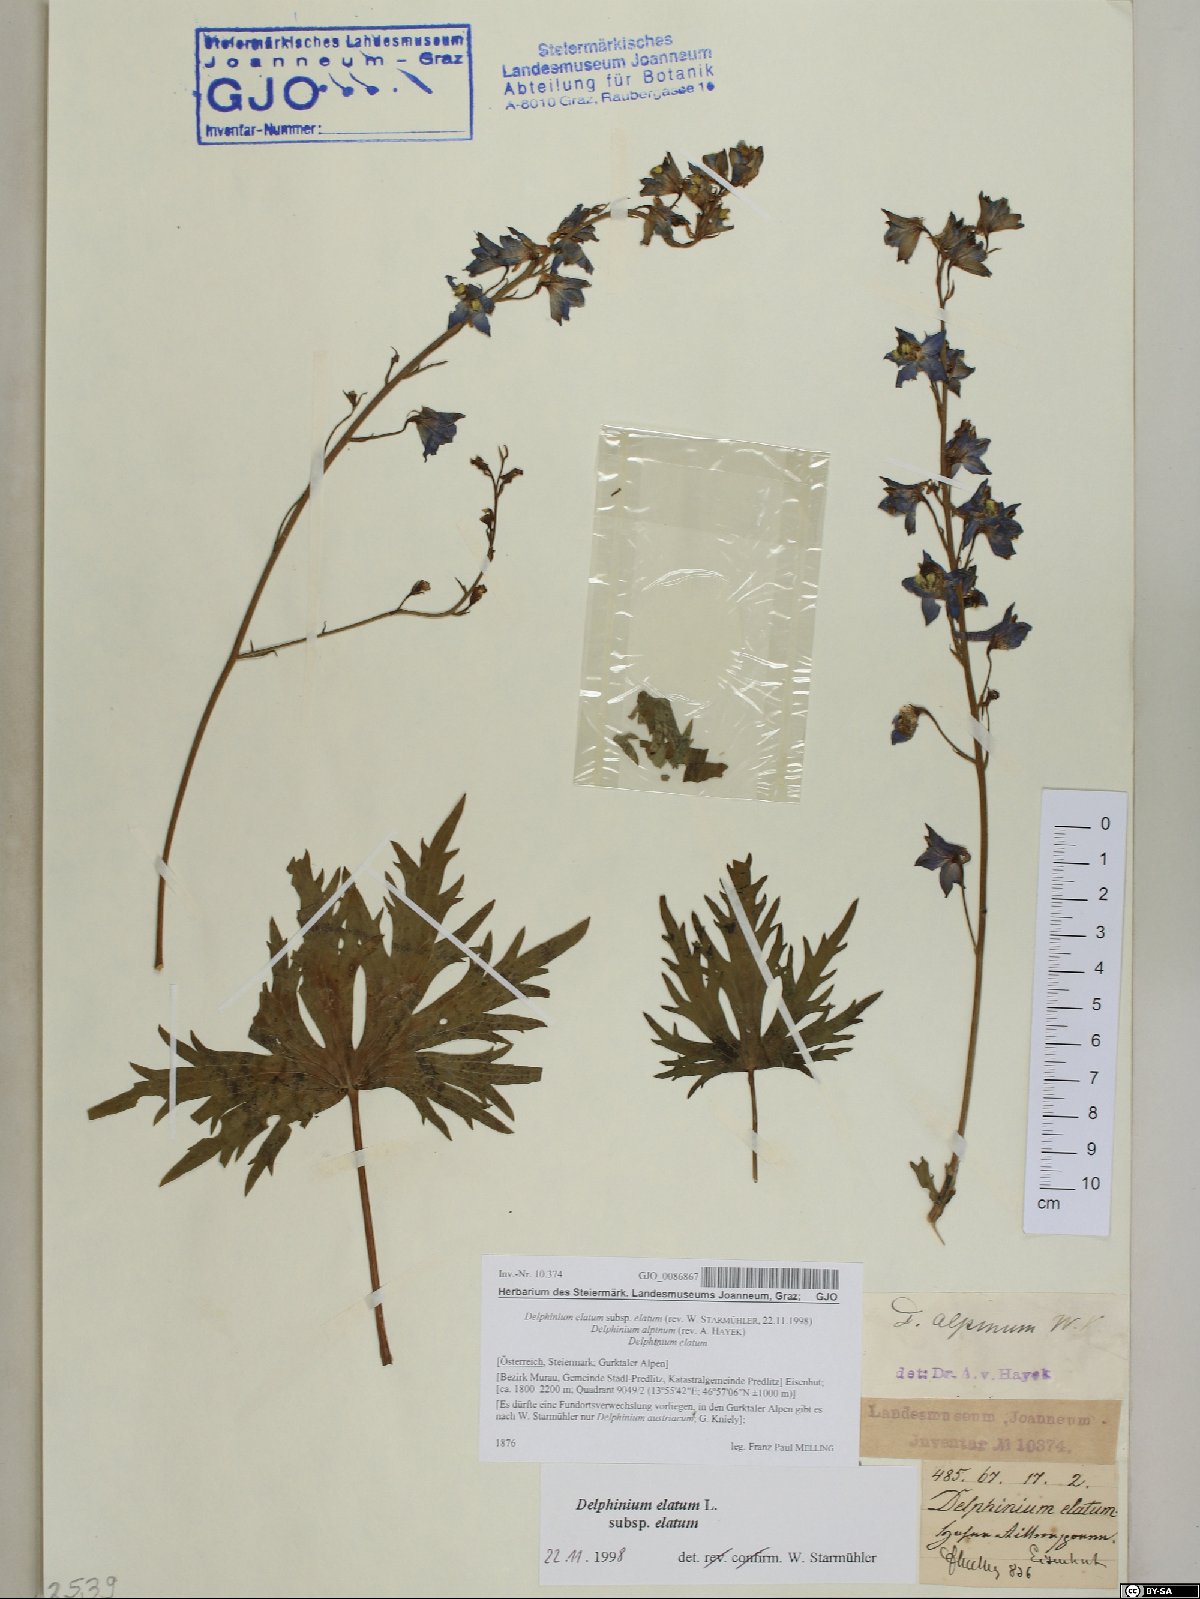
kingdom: Plantae
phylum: Tracheophyta
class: Magnoliopsida
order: Ranunculales
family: Ranunculaceae
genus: Delphinium
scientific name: Delphinium elatum
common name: Candle larkspur
